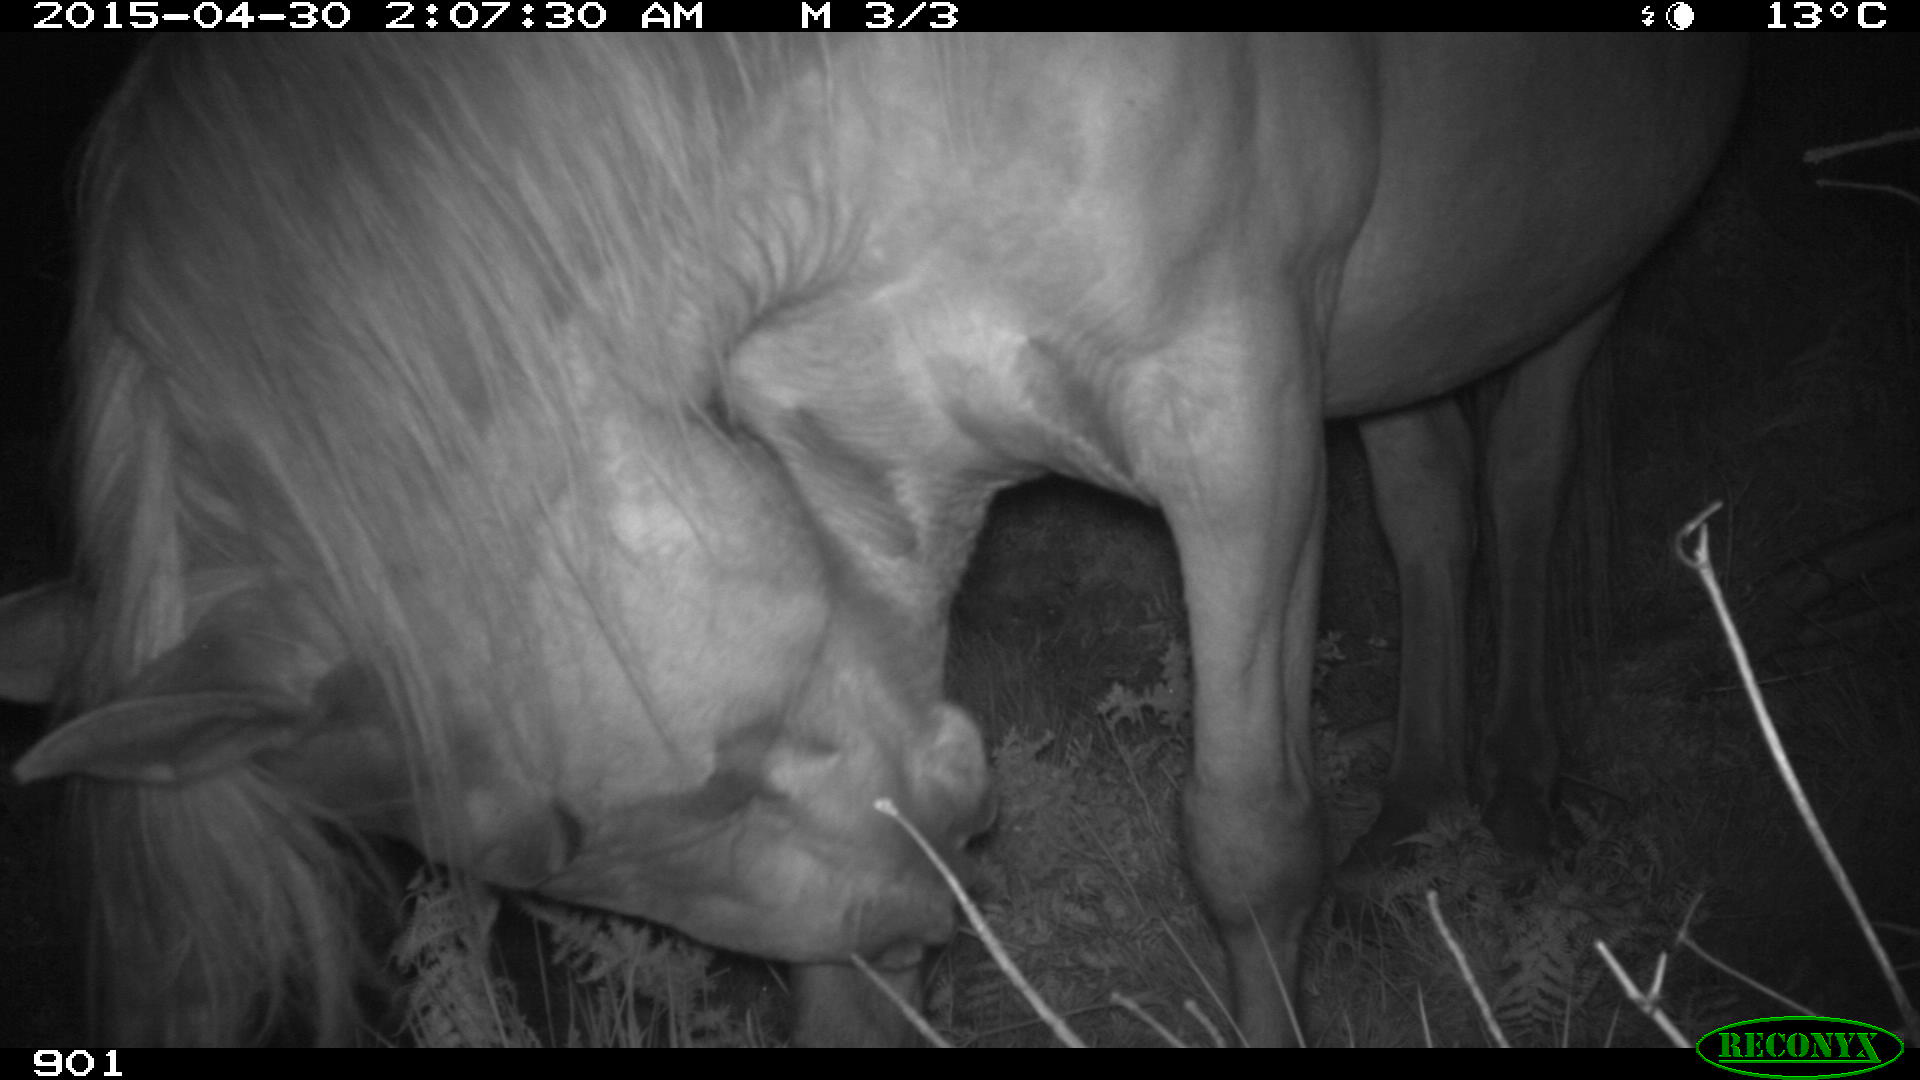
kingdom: Animalia
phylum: Chordata
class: Mammalia
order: Perissodactyla
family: Equidae
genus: Equus
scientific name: Equus caballus
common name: Horse
